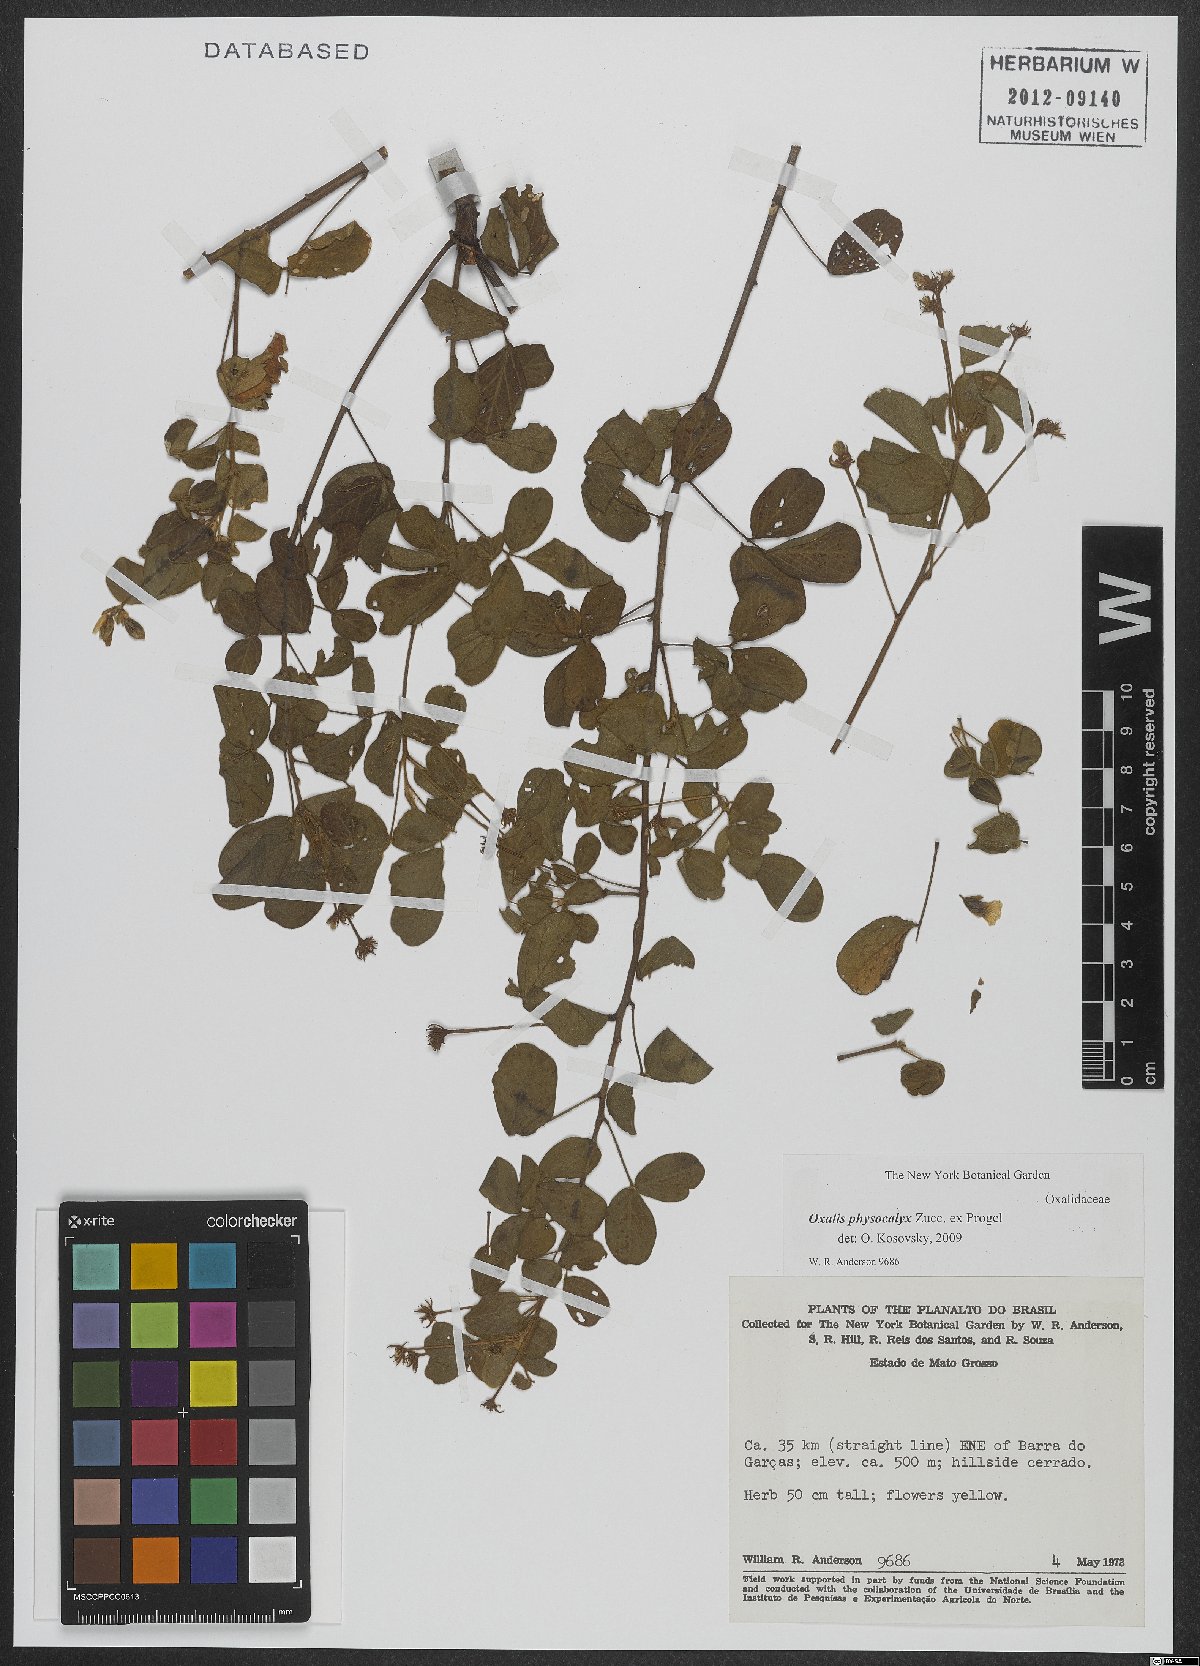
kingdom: Plantae
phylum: Tracheophyta
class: Magnoliopsida
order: Oxalidales
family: Oxalidaceae
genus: Oxalis
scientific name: Oxalis physocalyx
